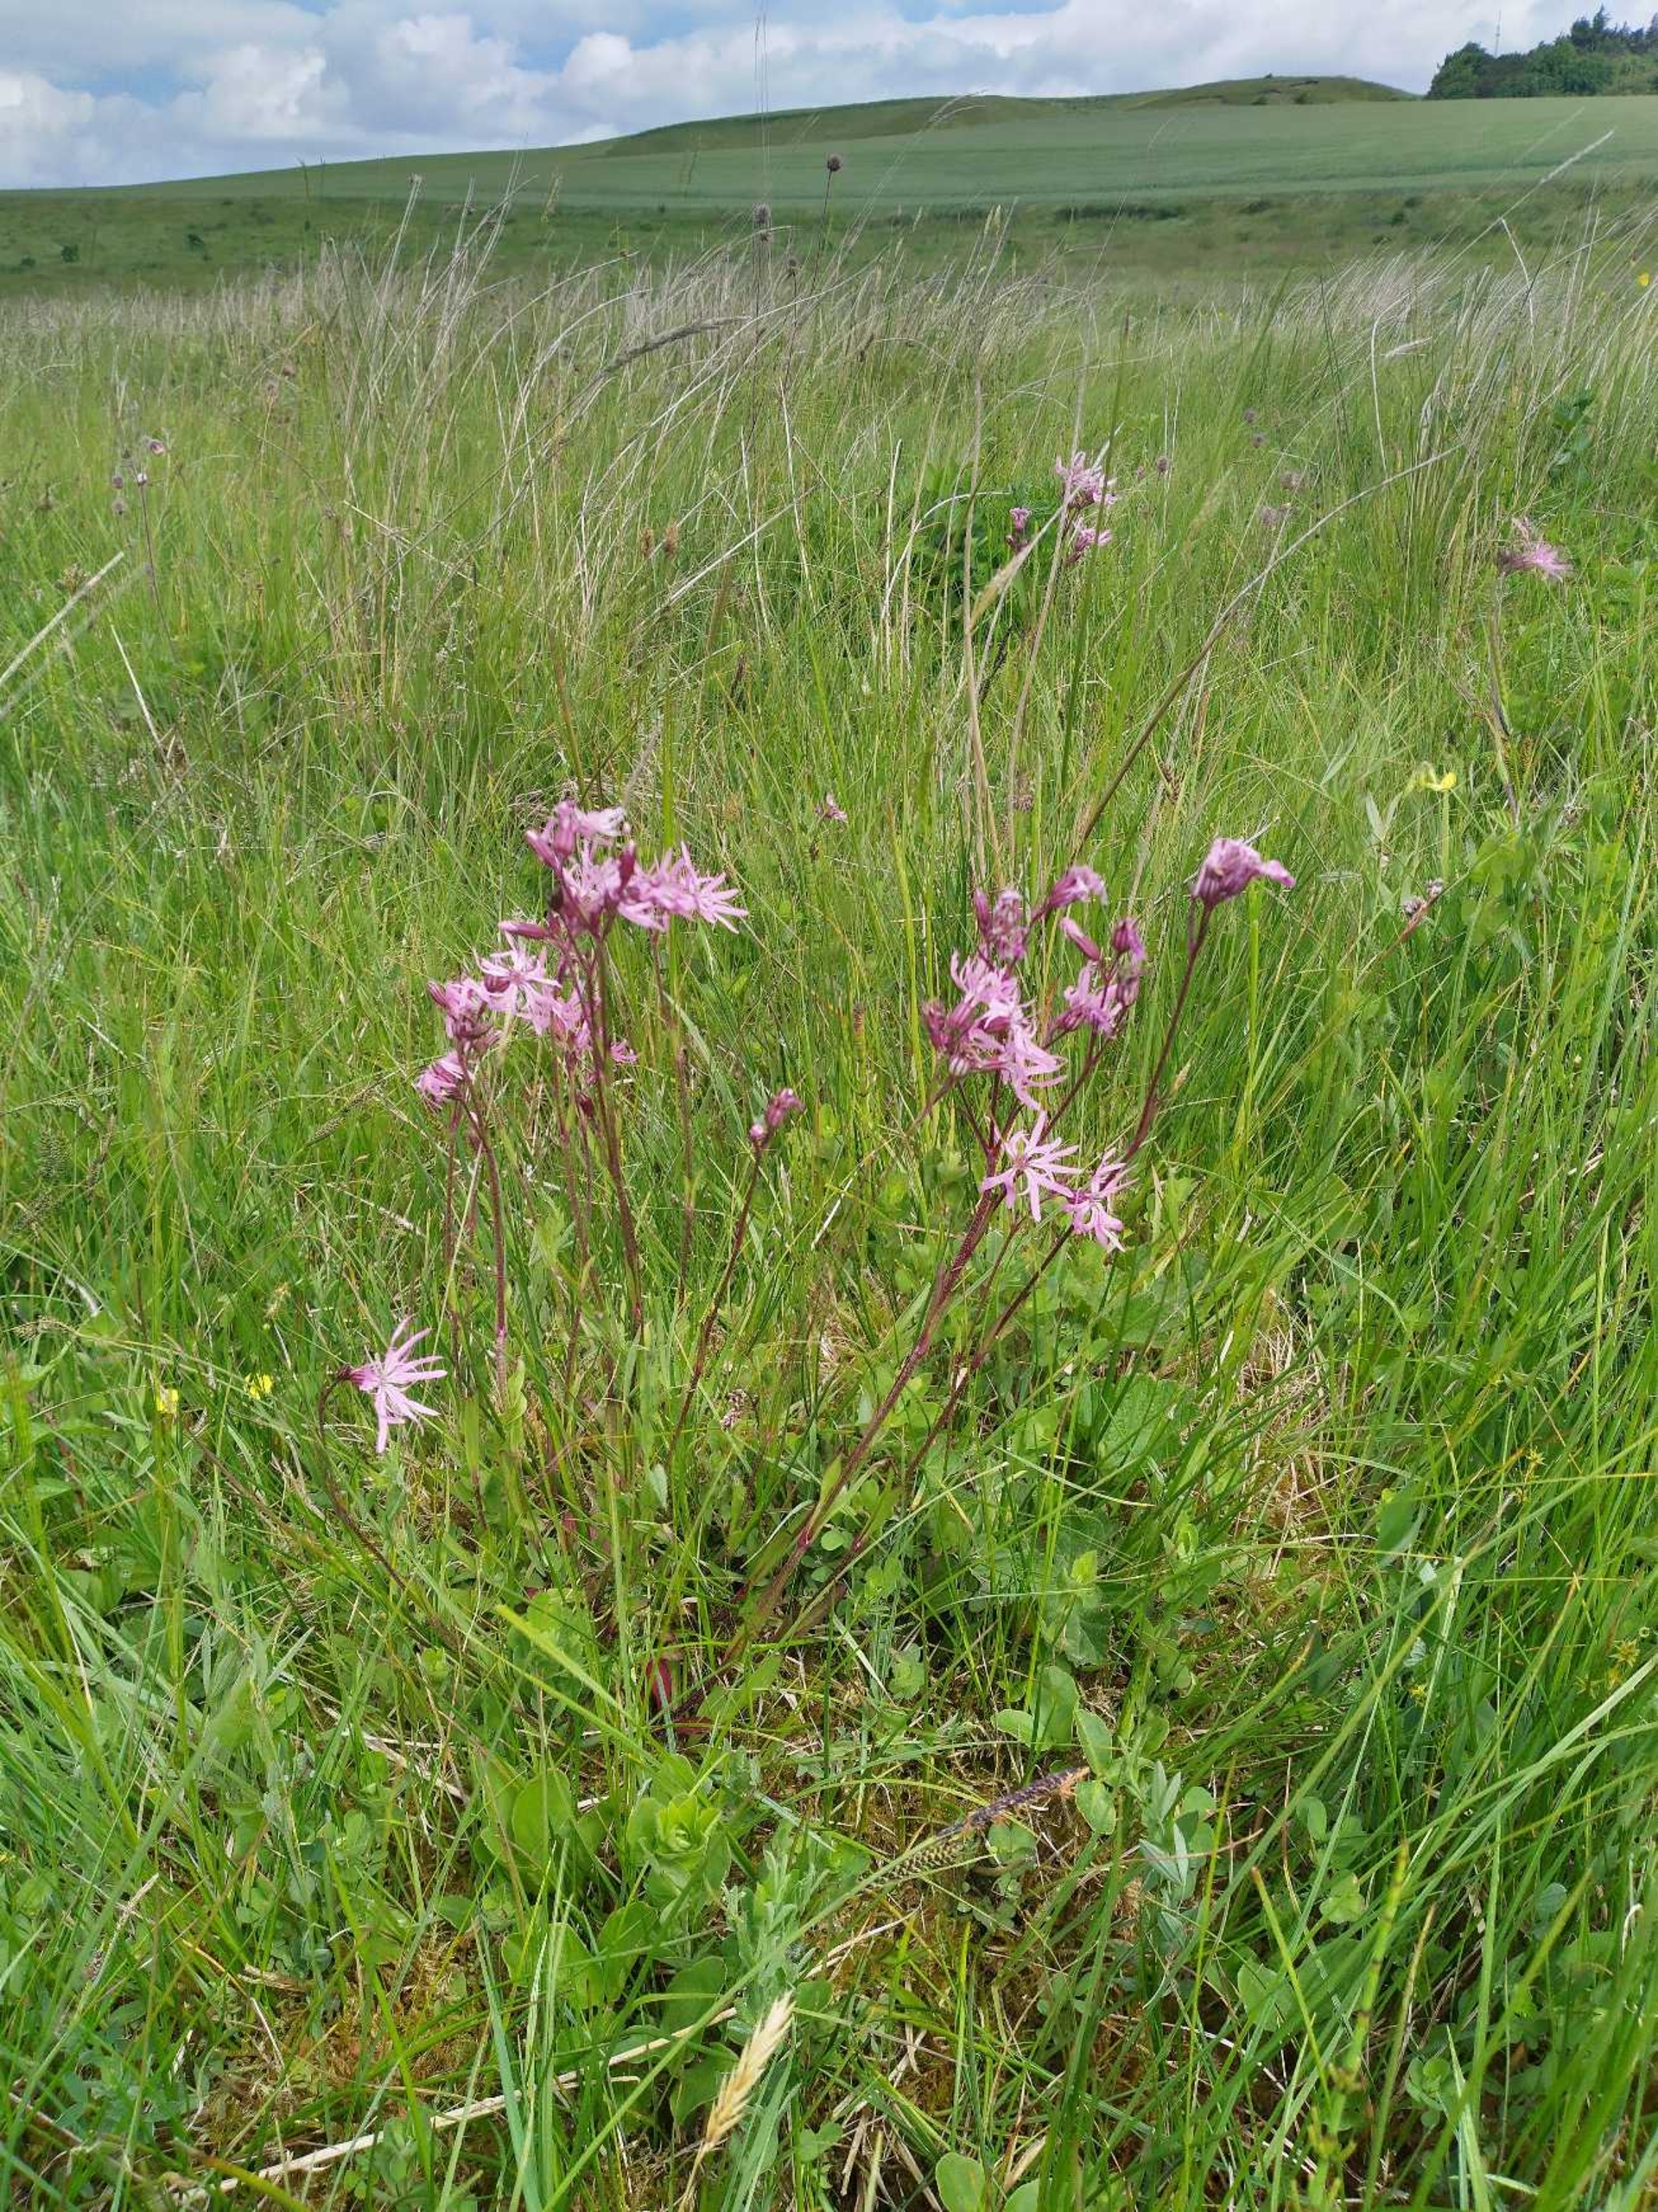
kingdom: Plantae
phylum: Tracheophyta
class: Magnoliopsida
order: Caryophyllales
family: Caryophyllaceae
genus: Silene
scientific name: Silene flos-cuculi
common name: Trævlekrone
